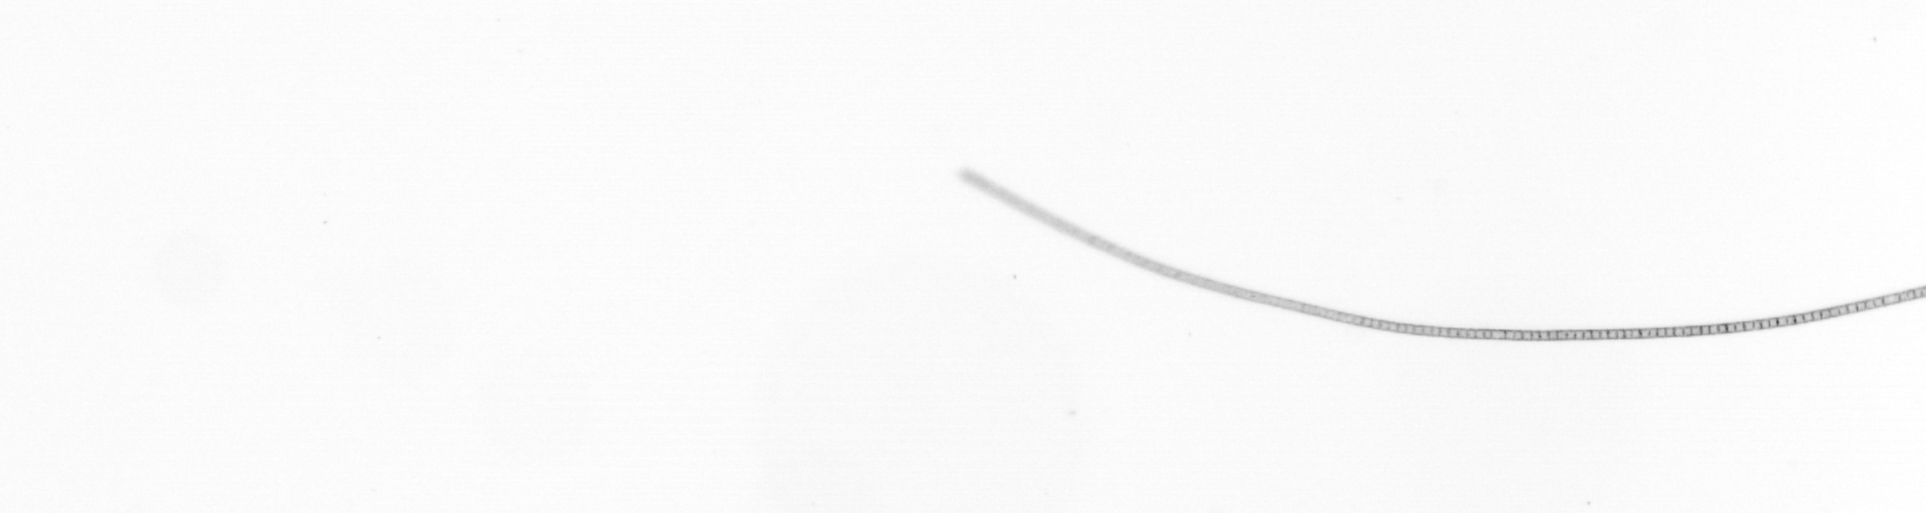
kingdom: Chromista
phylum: Ochrophyta
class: Bacillariophyceae
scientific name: Bacillariophyceae
